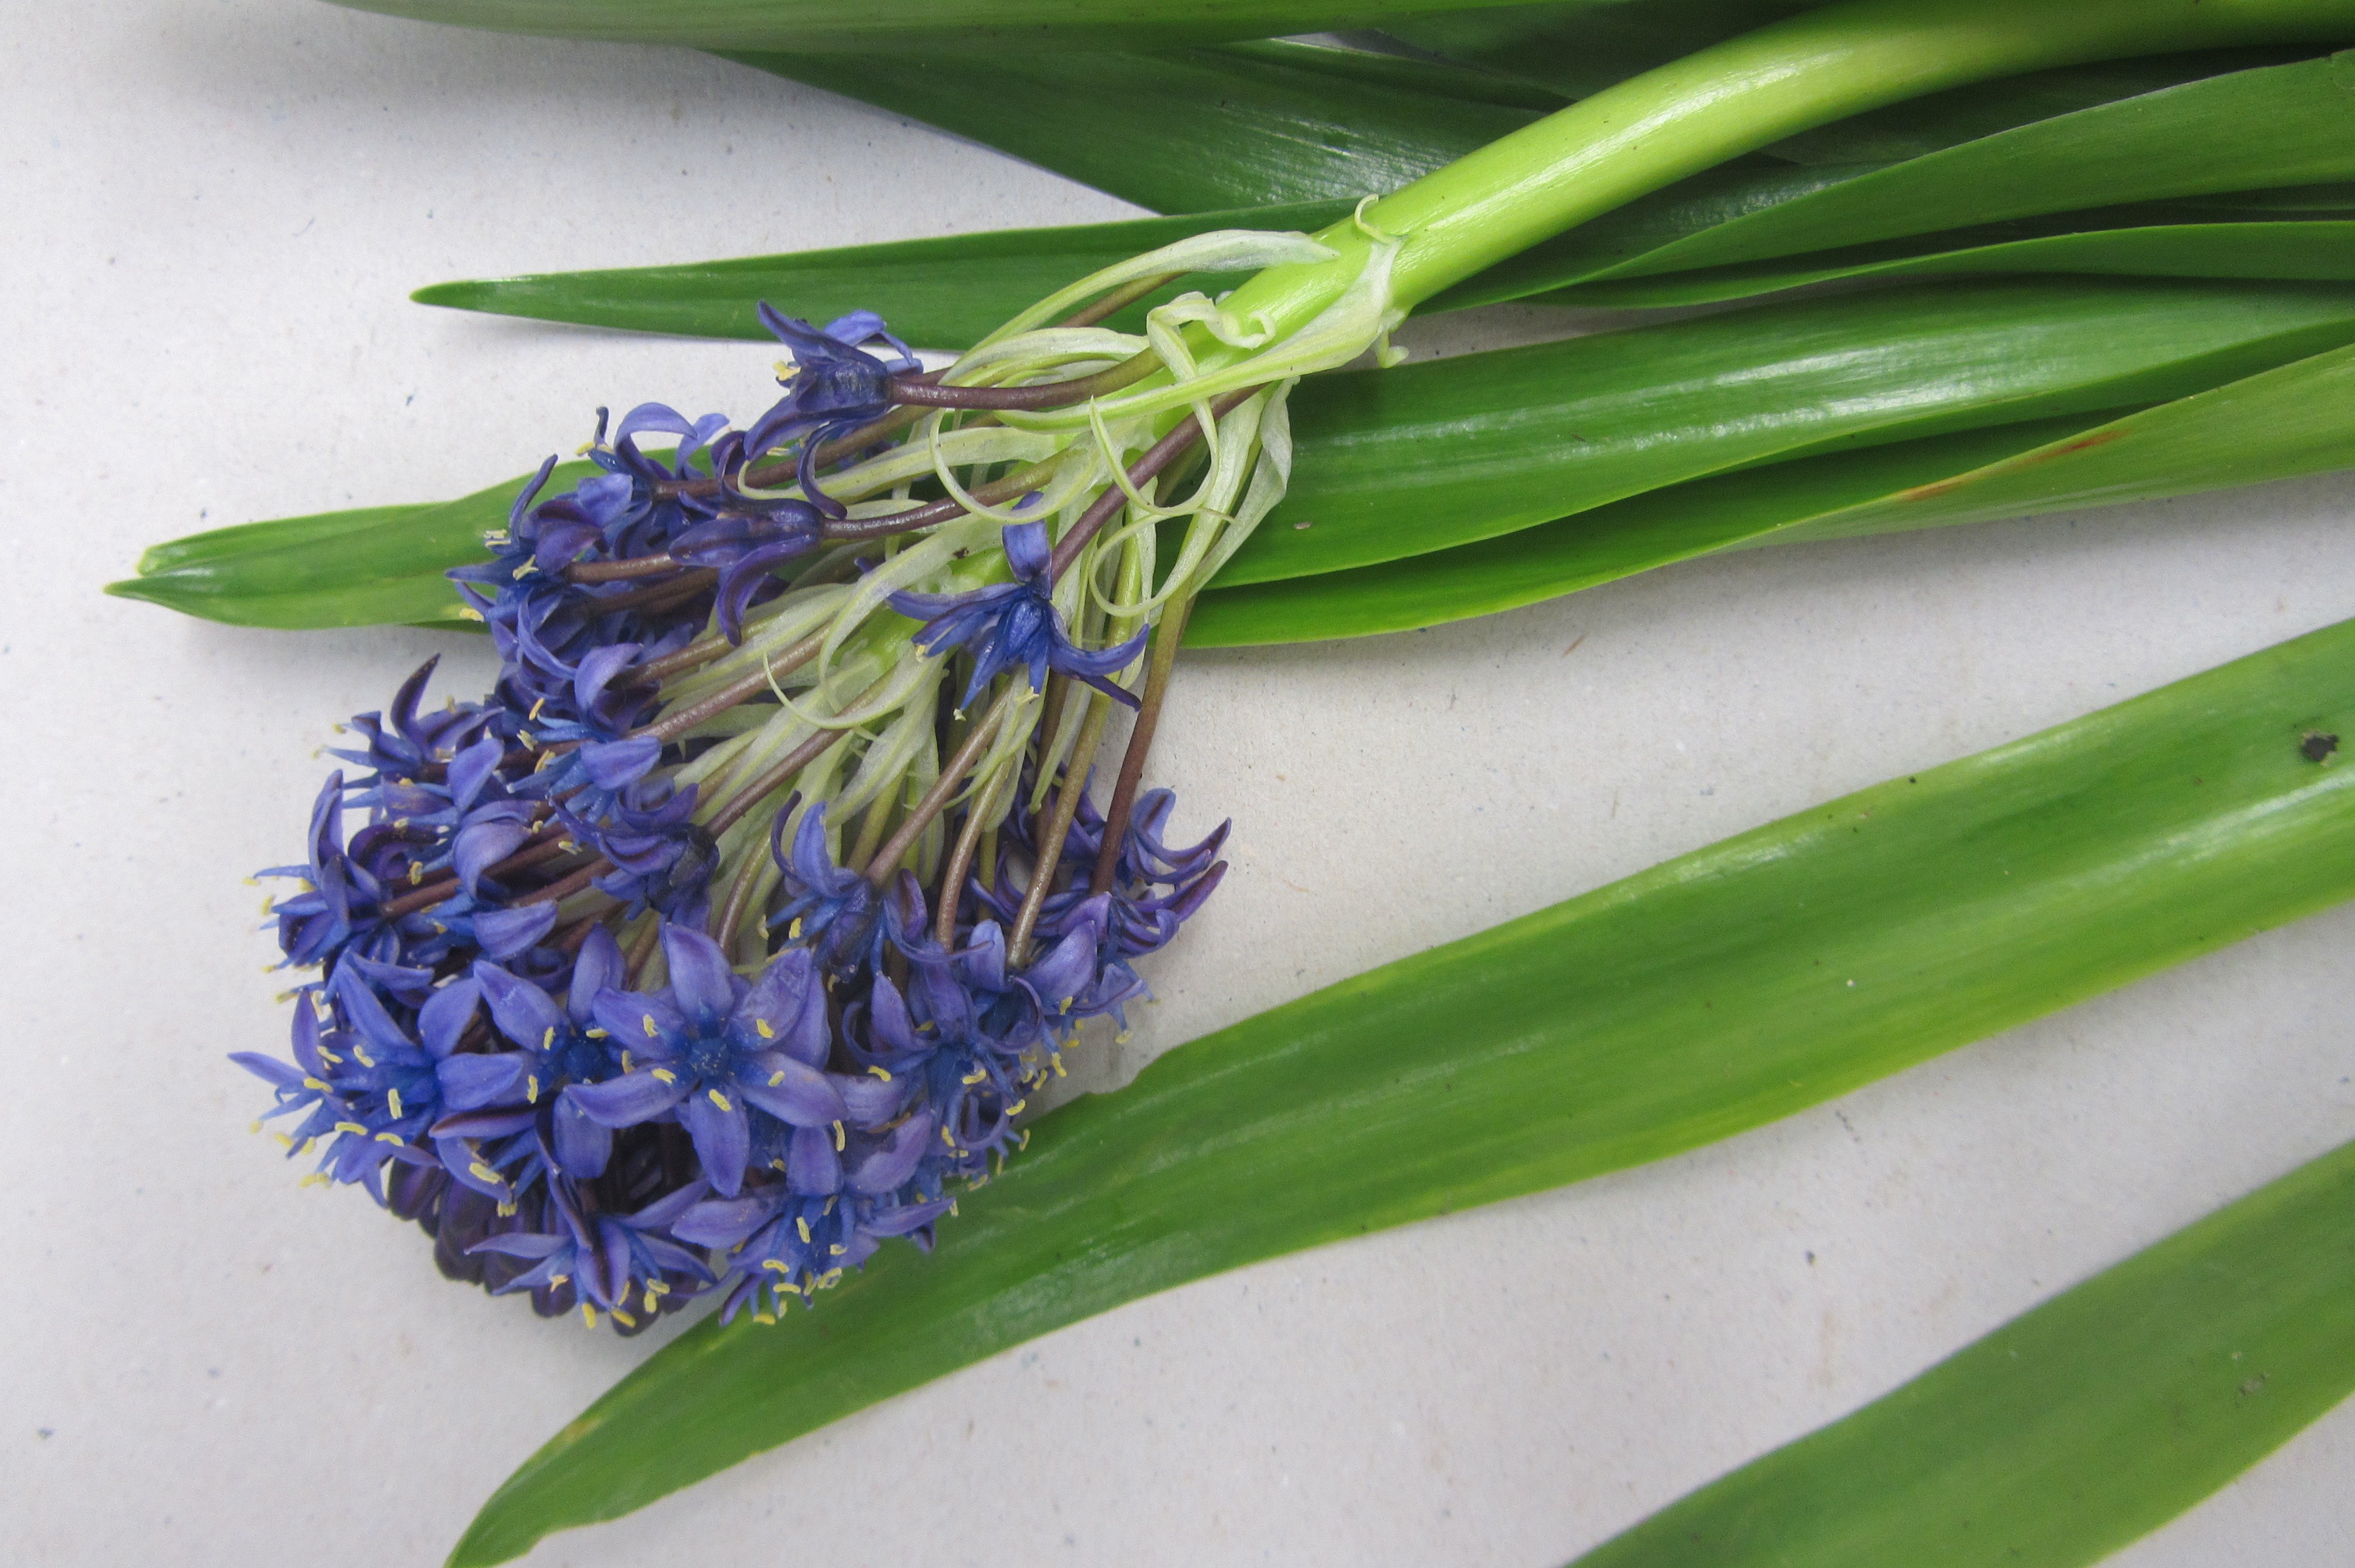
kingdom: Plantae
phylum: Tracheophyta
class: Liliopsida
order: Asparagales
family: Asparagaceae
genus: Scilla
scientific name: Scilla peruviana
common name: Portuguese squill
